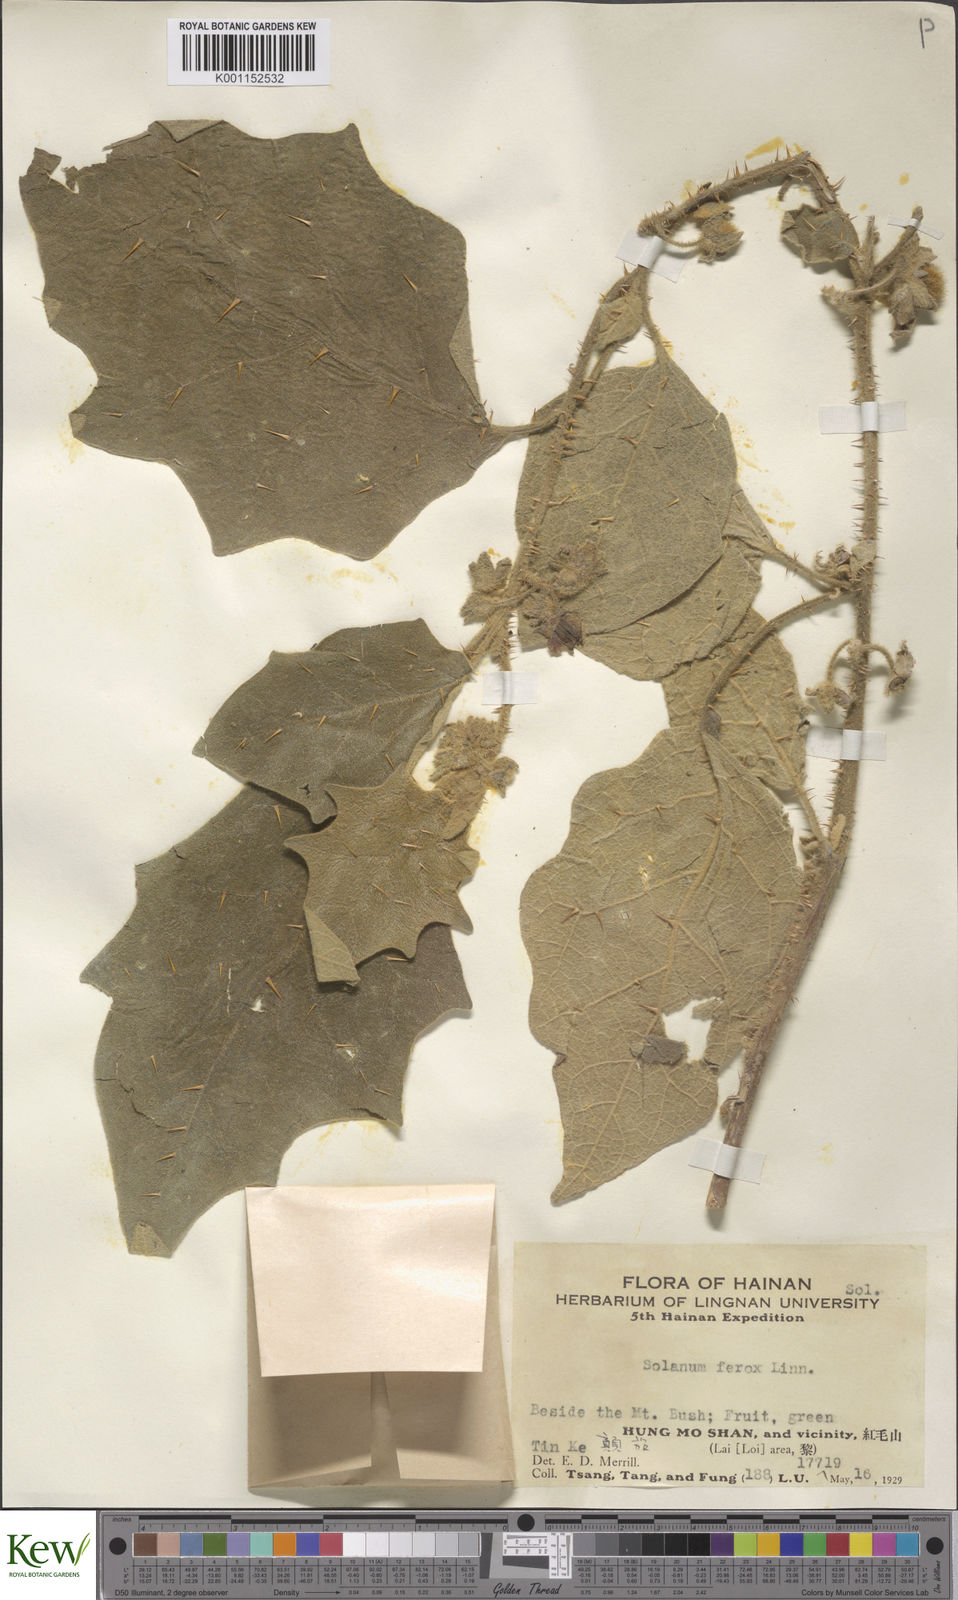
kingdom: Plantae
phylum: Tracheophyta
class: Magnoliopsida
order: Solanales
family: Solanaceae
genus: Solanum
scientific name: Solanum lasiocarpum
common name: Indian nightshade
